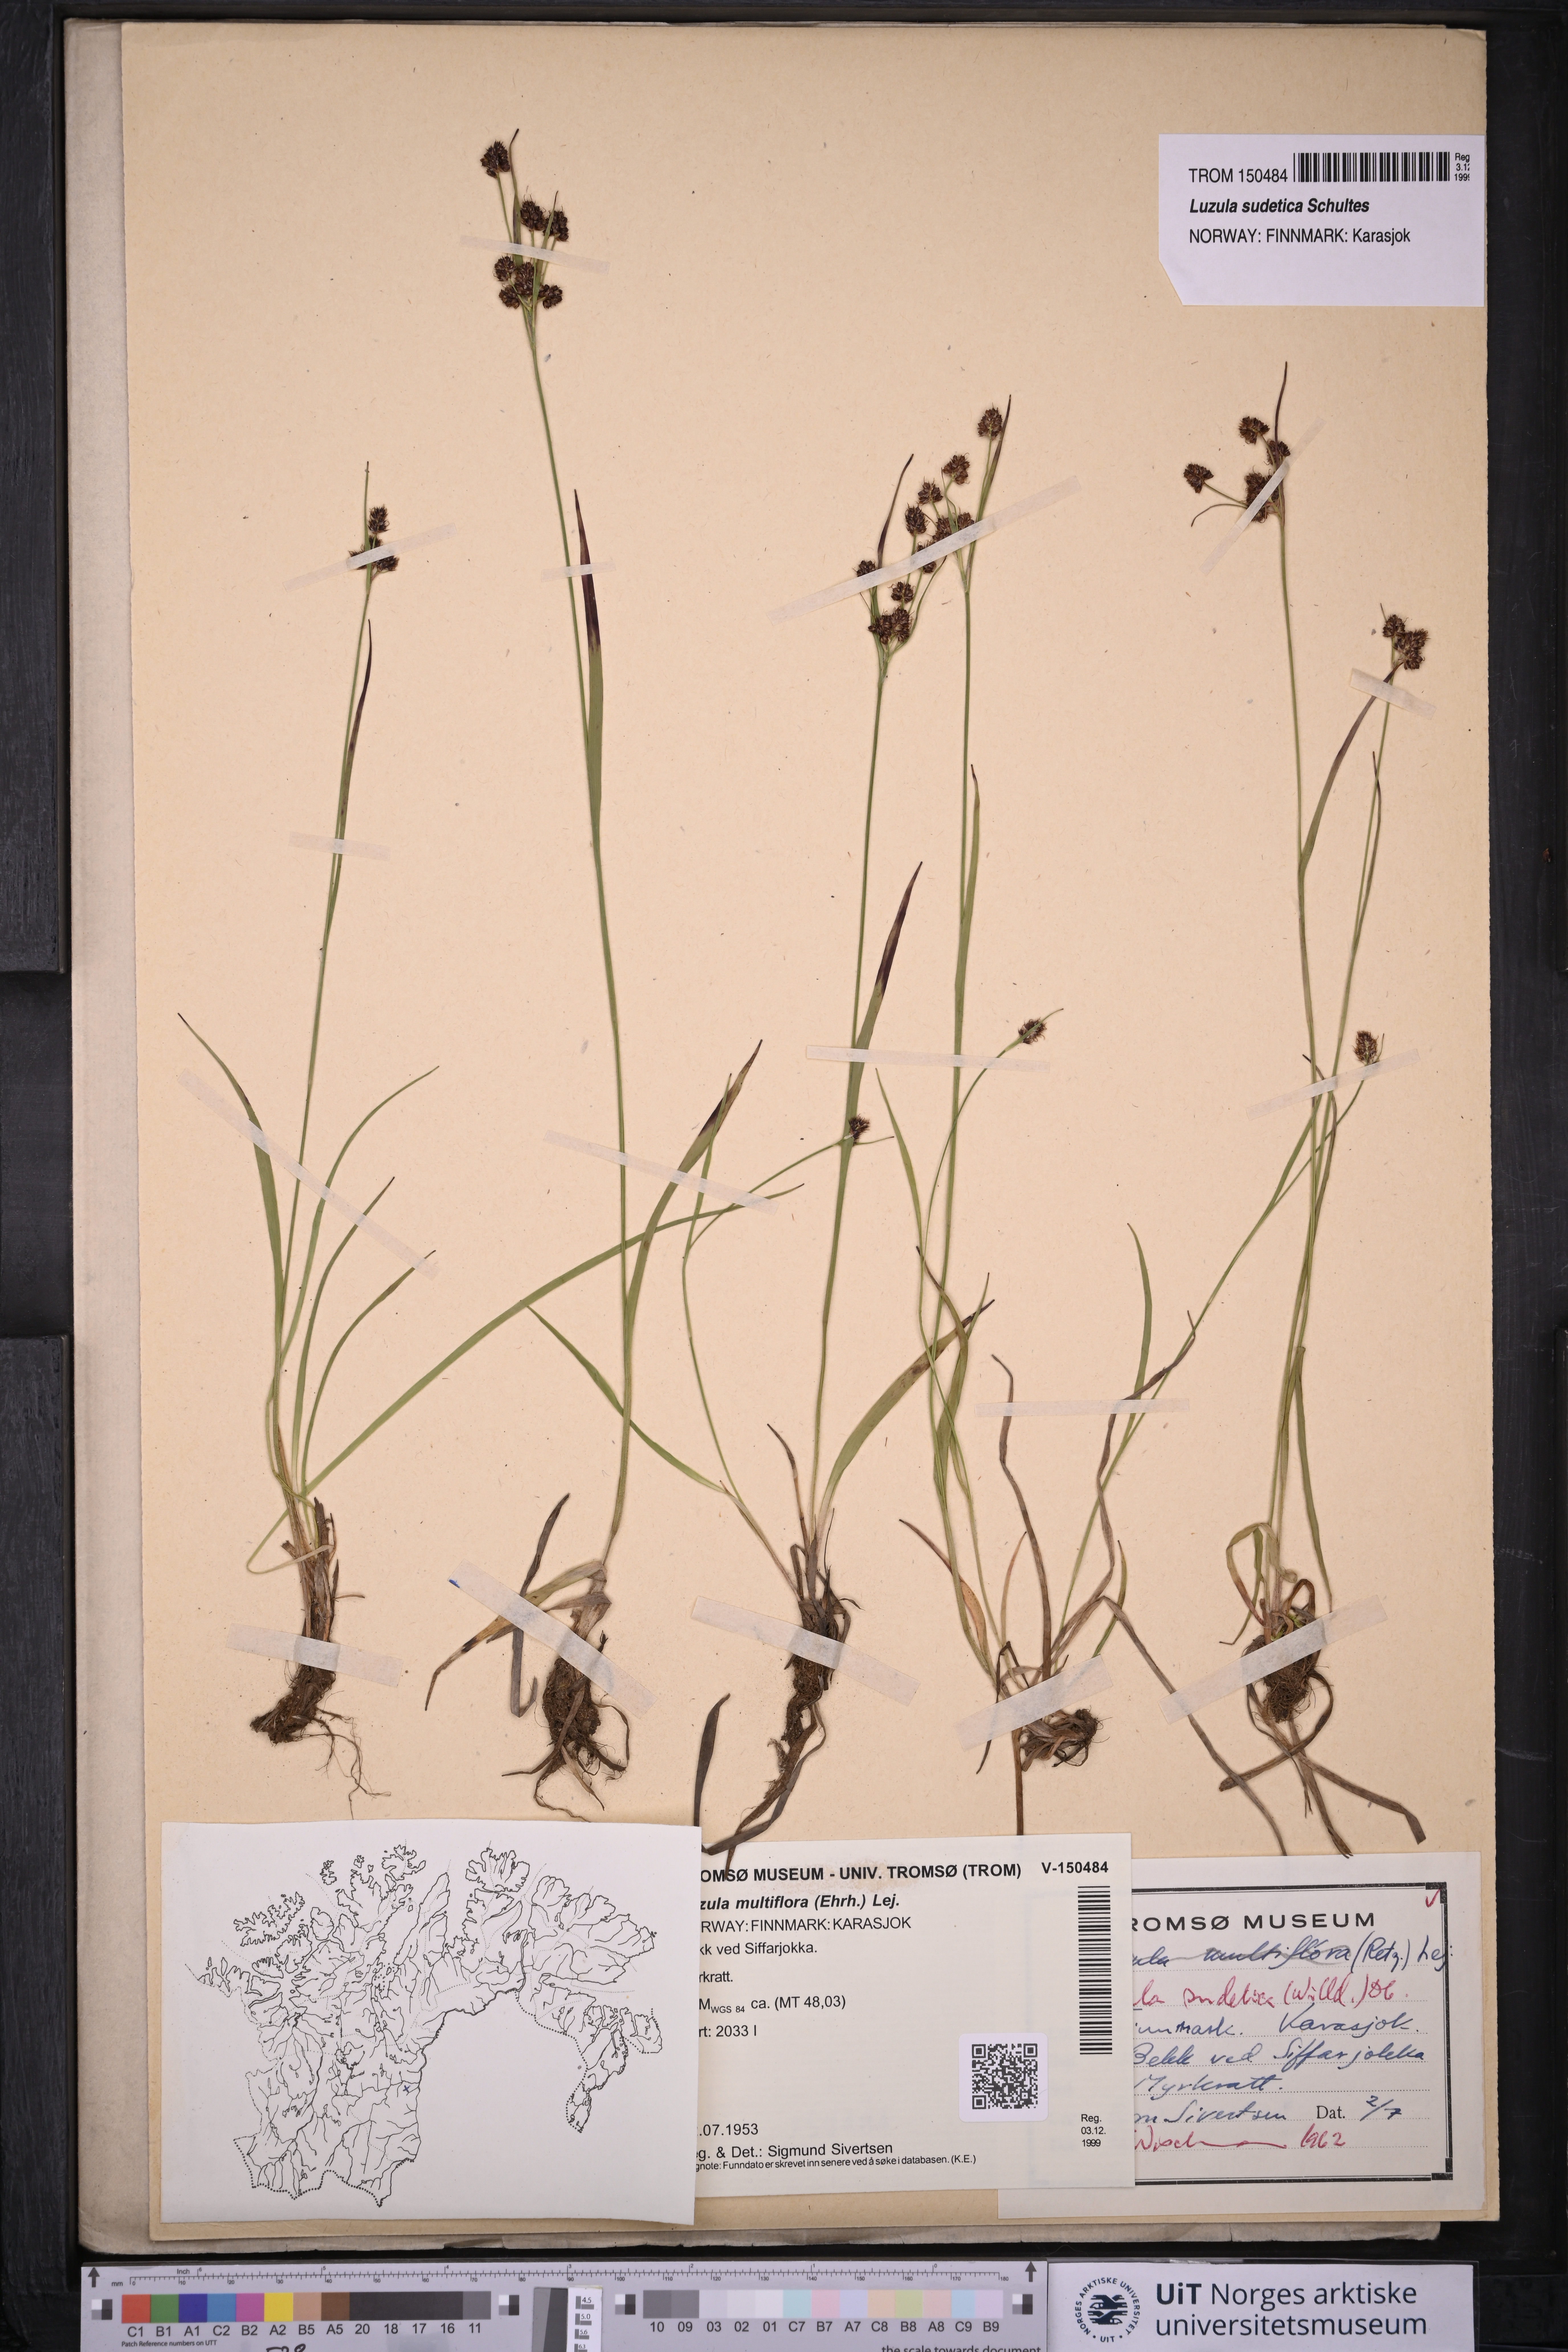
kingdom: Plantae
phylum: Tracheophyta
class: Liliopsida
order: Poales
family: Juncaceae
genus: Luzula
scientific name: Luzula sudetica
